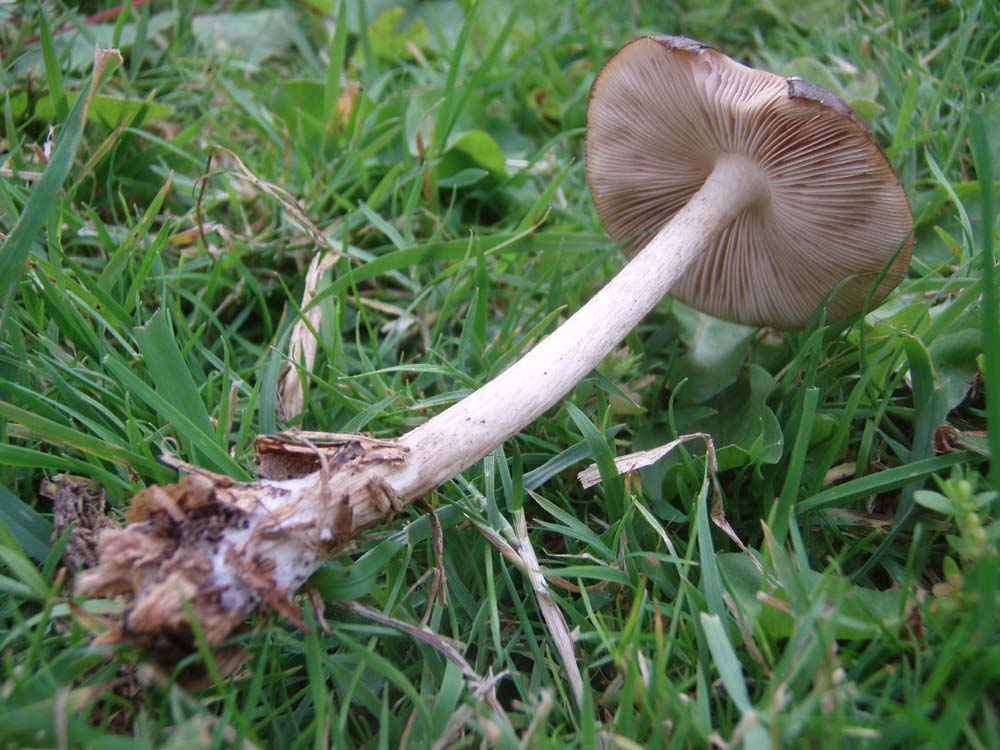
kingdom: Fungi
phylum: Basidiomycota
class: Agaricomycetes
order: Agaricales
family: Pluteaceae
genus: Pluteus
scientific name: Pluteus cervinus
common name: sodfarvet skærmhat
